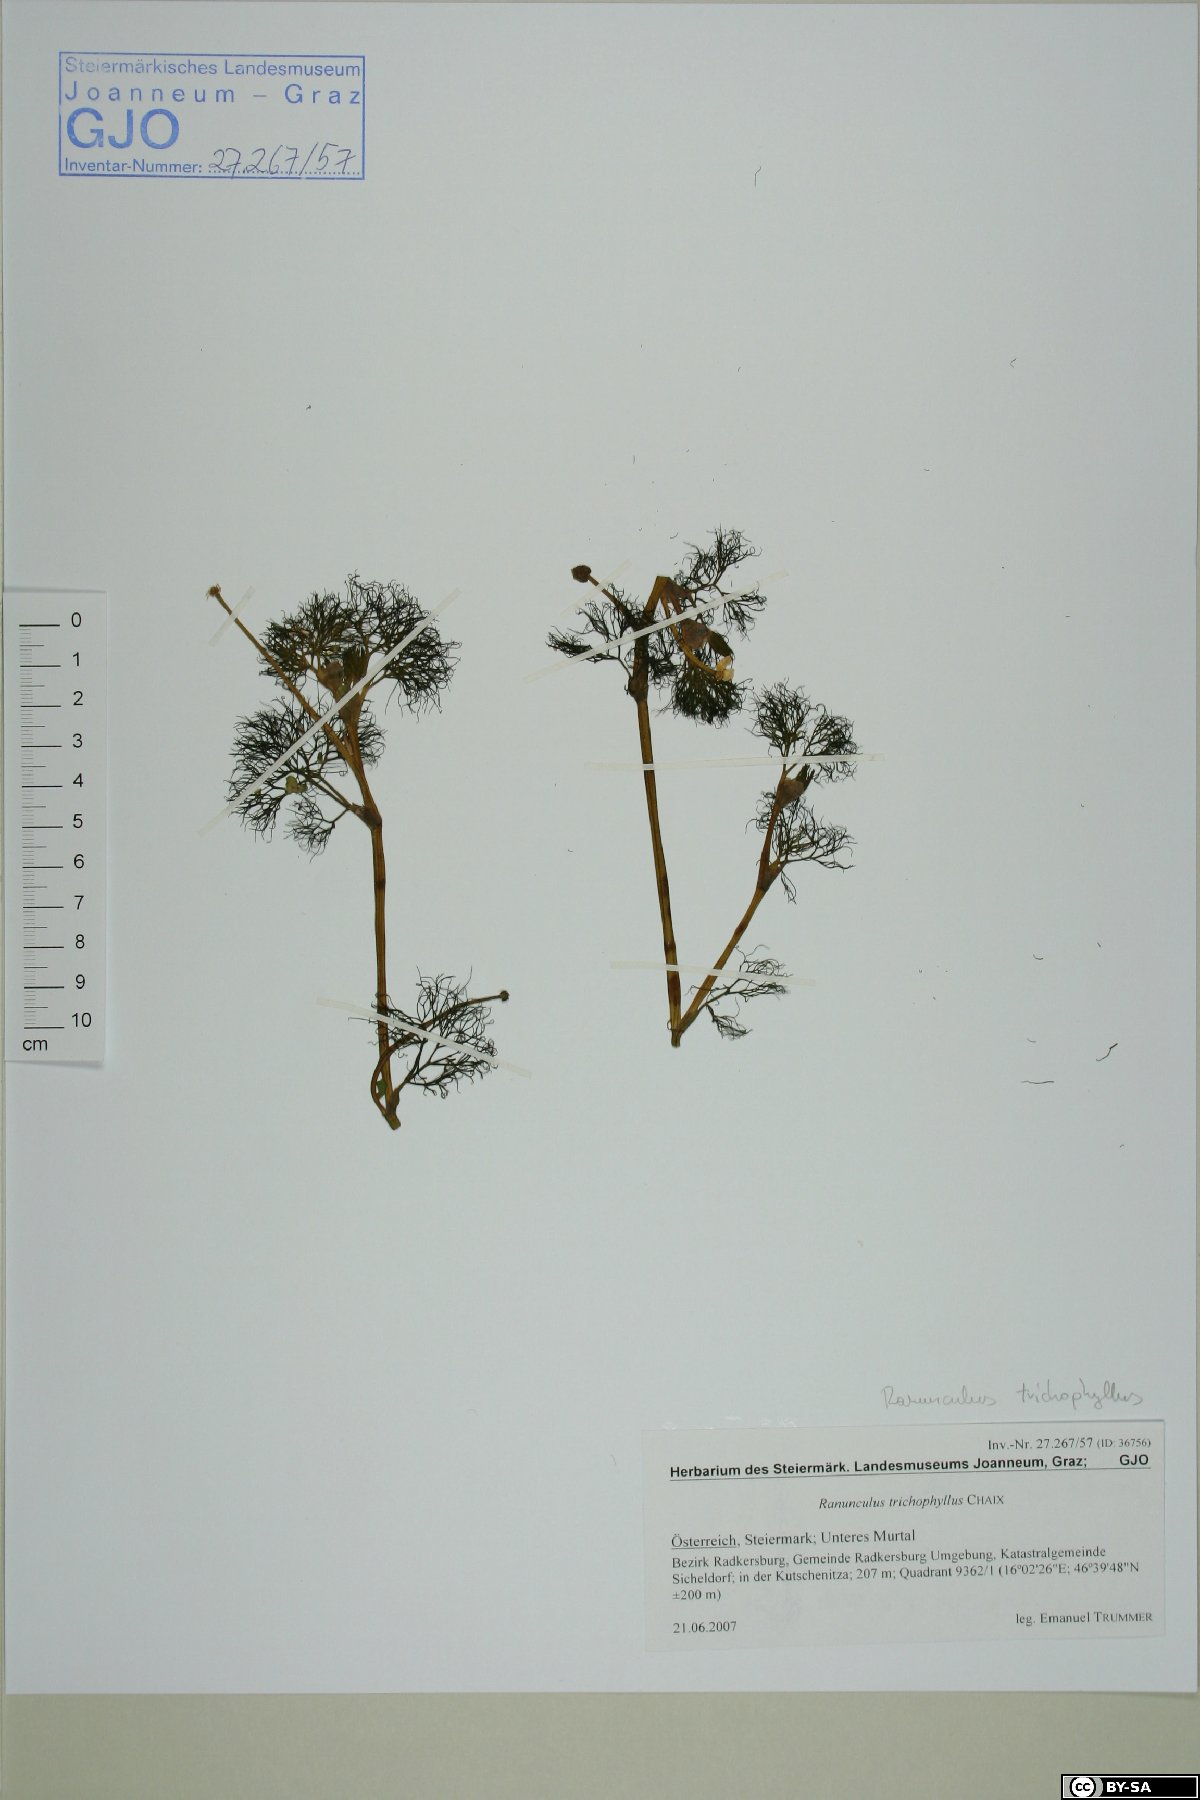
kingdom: Plantae
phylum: Tracheophyta
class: Magnoliopsida
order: Ranunculales
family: Ranunculaceae
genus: Ranunculus
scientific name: Ranunculus trichophyllus
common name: Thread-leaved water-crowfoot
